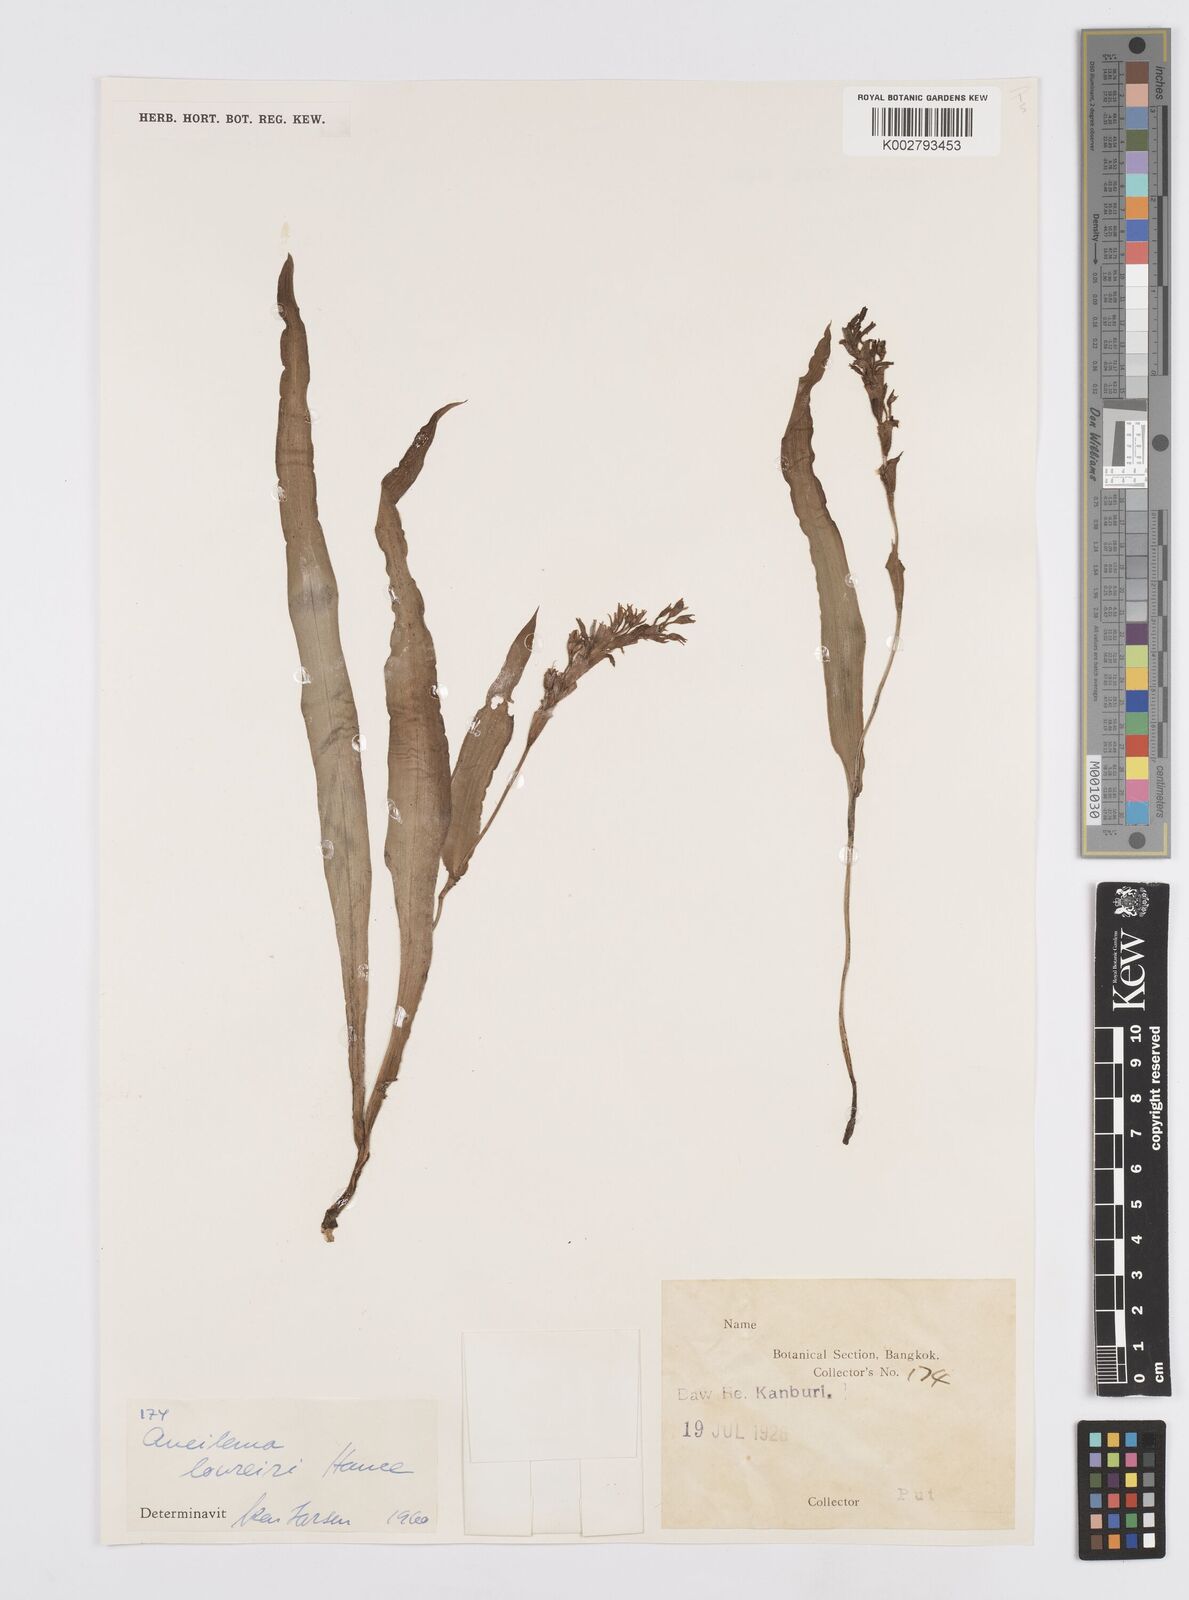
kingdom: Plantae
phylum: Tracheophyta
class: Liliopsida
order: Commelinales
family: Commelinaceae
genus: Murdannia
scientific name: Murdannia edulis
